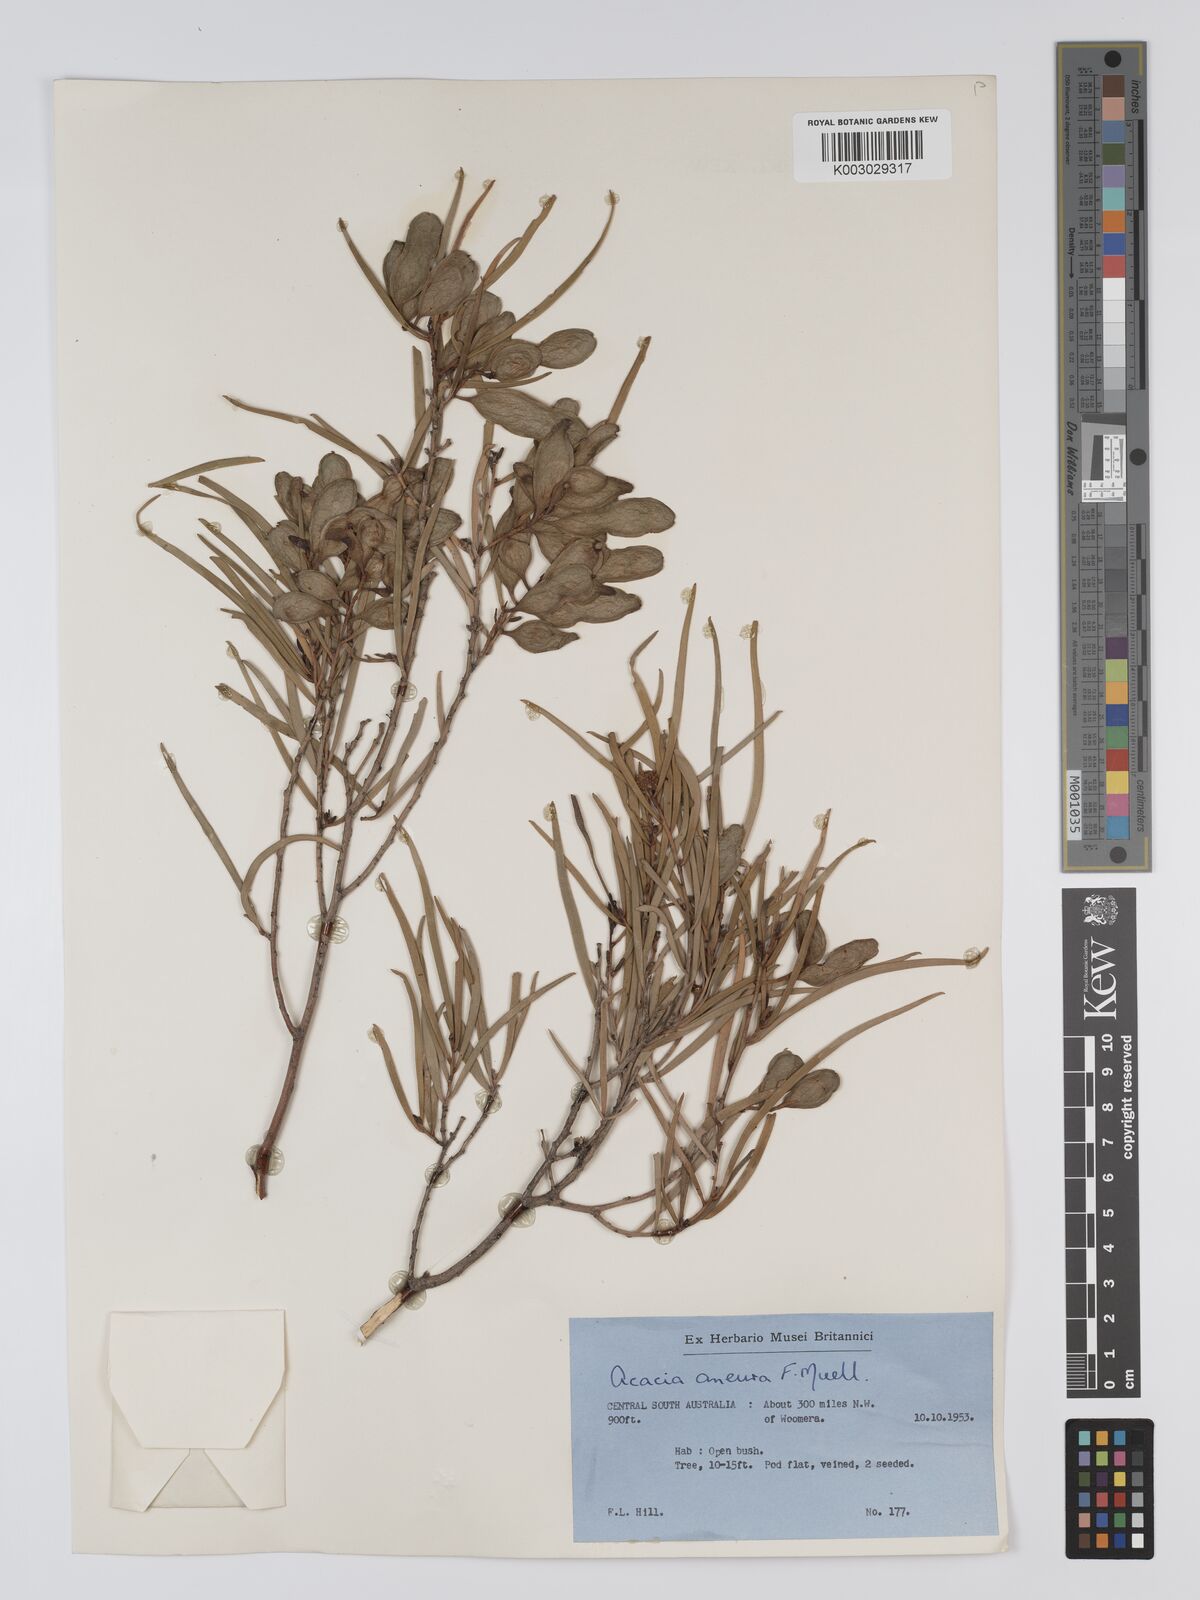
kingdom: Plantae
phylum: Tracheophyta
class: Magnoliopsida
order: Fabales
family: Fabaceae
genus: Acacia
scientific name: Acacia aneura
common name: Mulga
